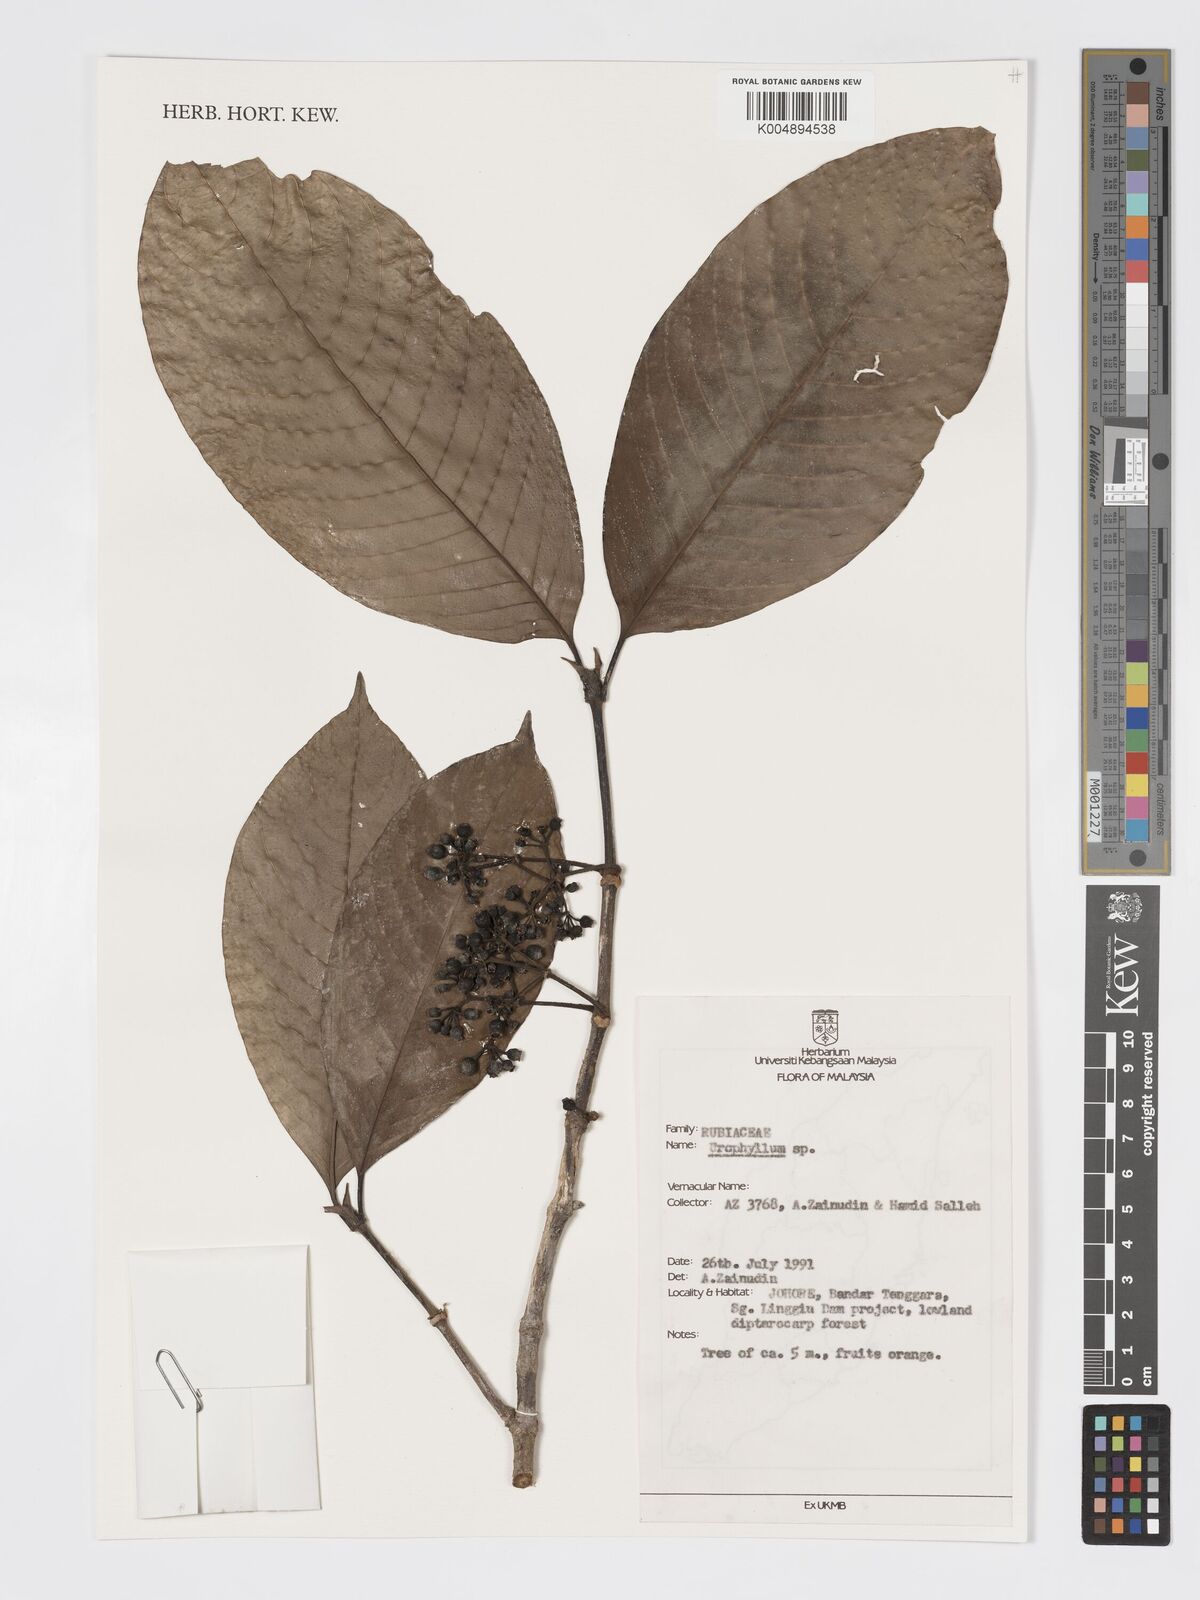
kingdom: Plantae
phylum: Tracheophyta
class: Magnoliopsida
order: Gentianales
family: Rubiaceae
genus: Urophyllum
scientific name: Urophyllum malayense
